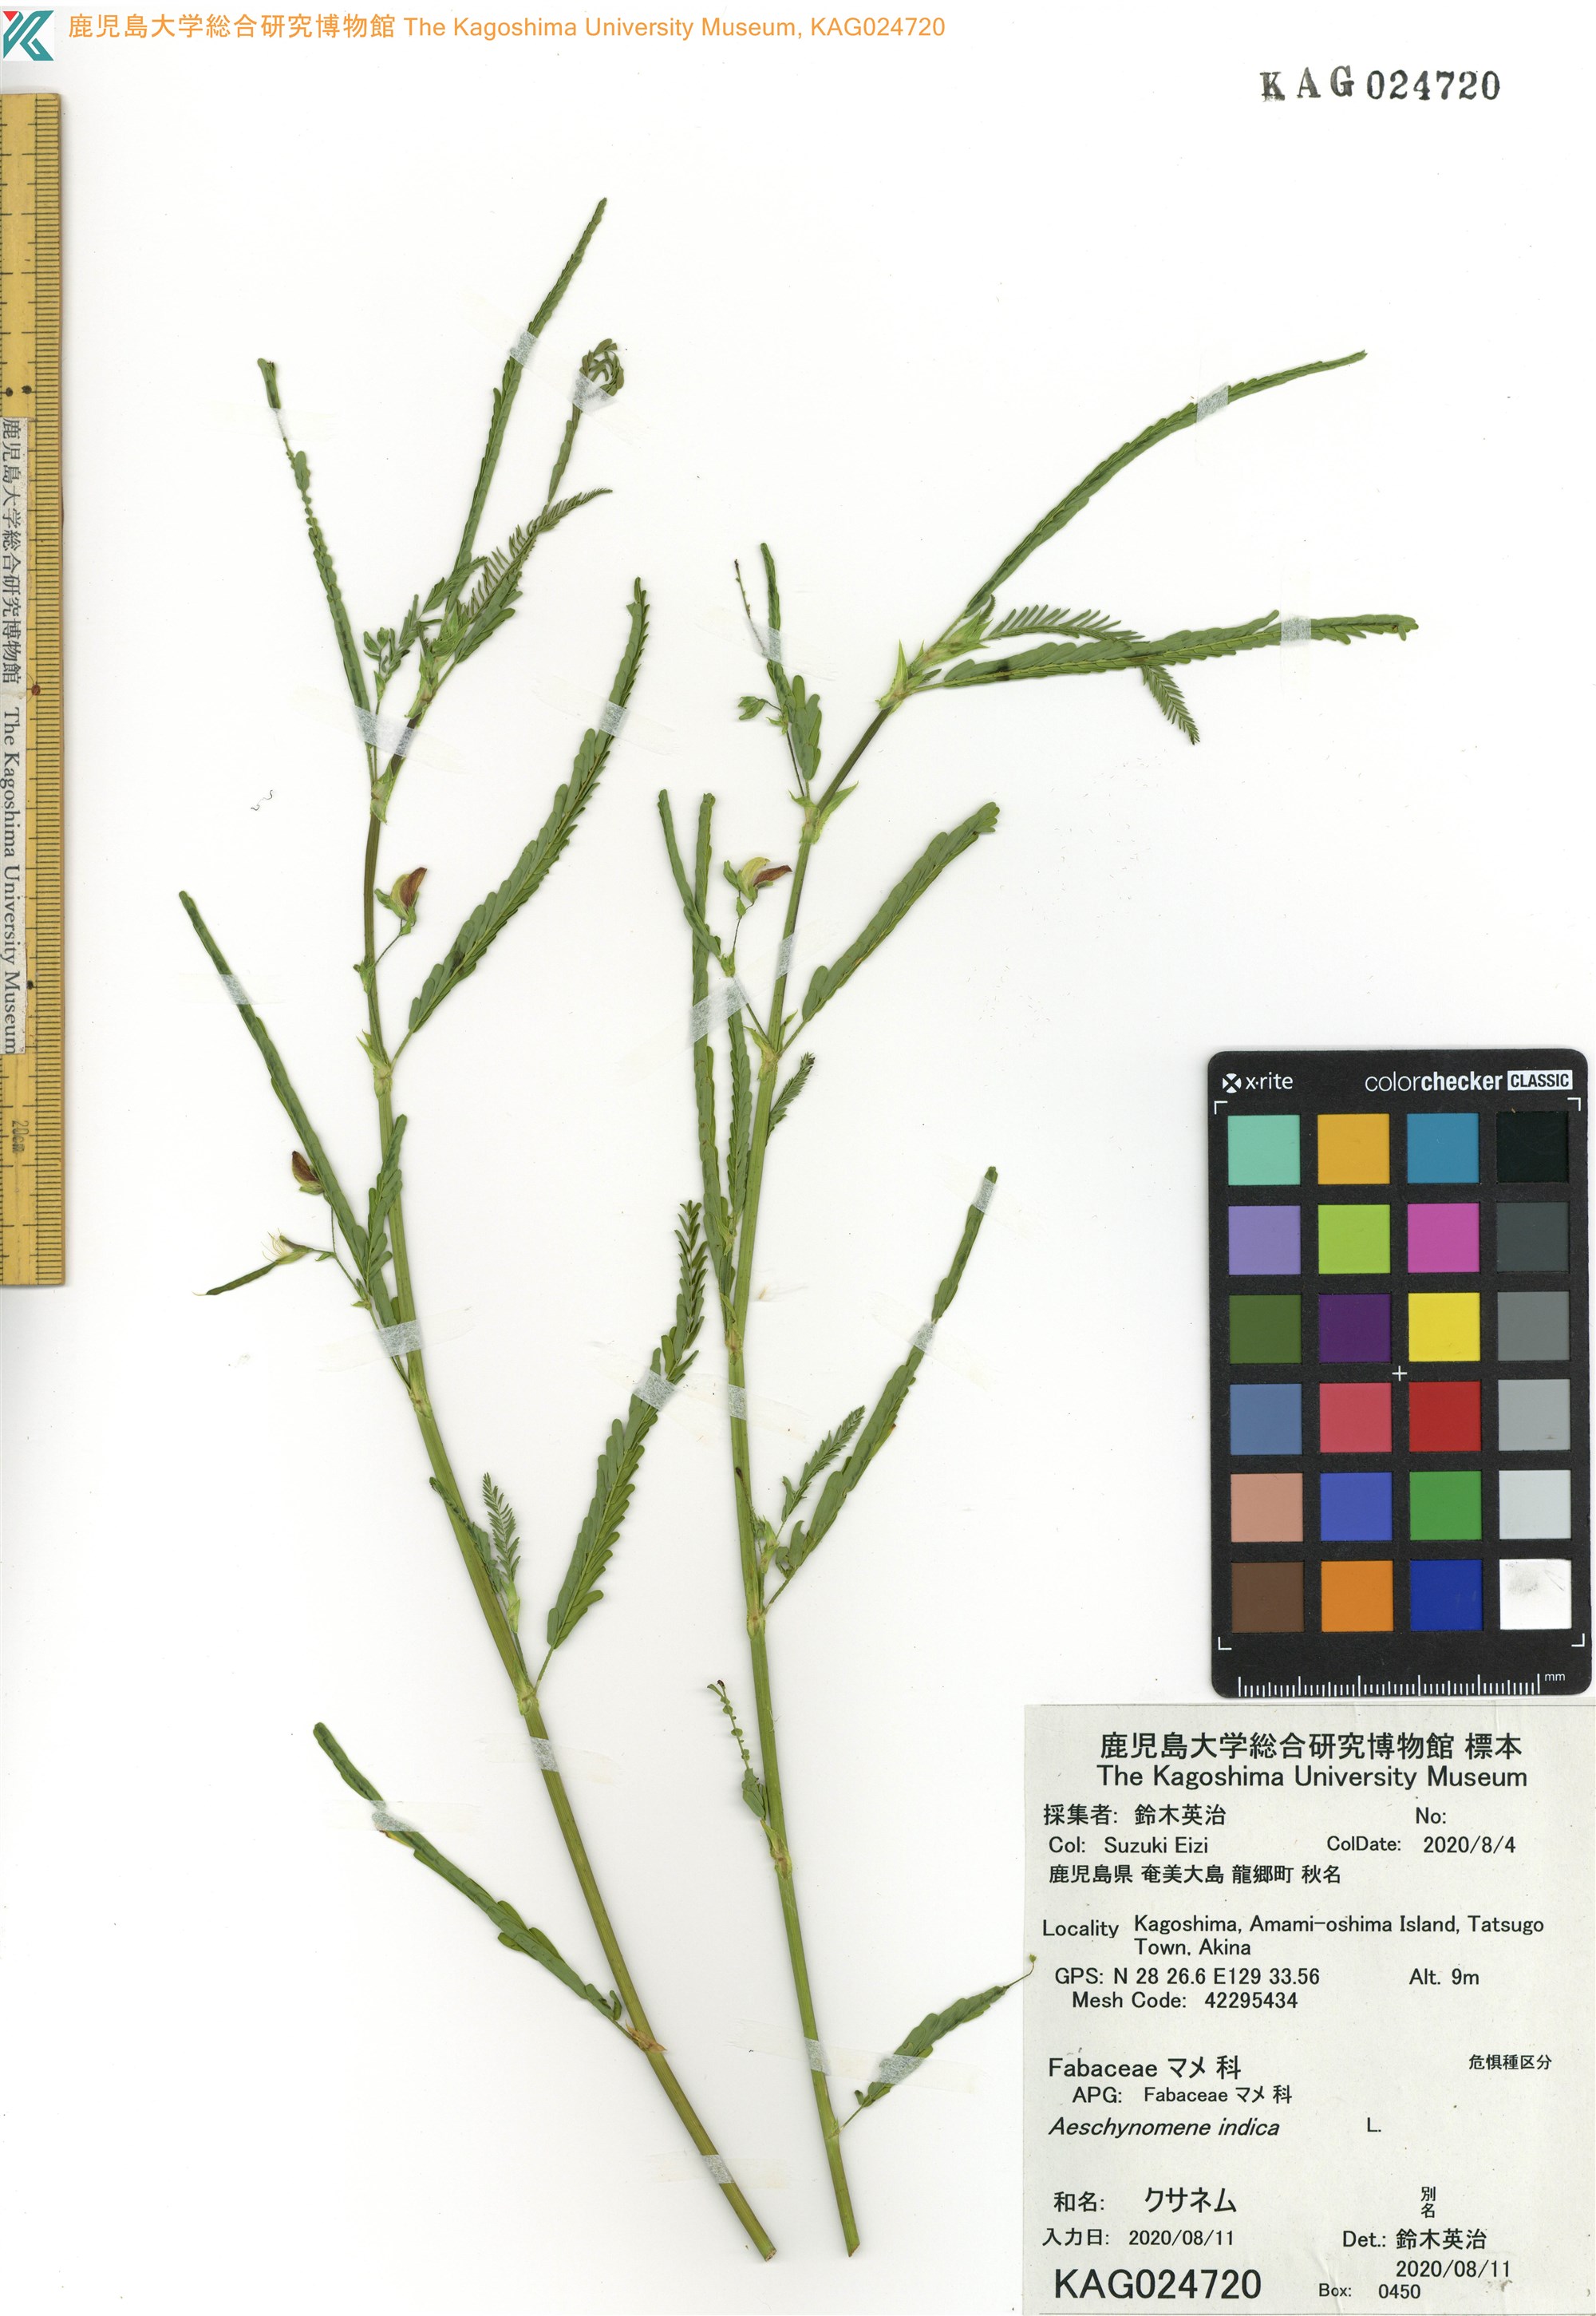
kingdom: Plantae
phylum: Tracheophyta
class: Magnoliopsida
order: Fabales
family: Fabaceae
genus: Aeschynomene
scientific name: Aeschynomene indica
